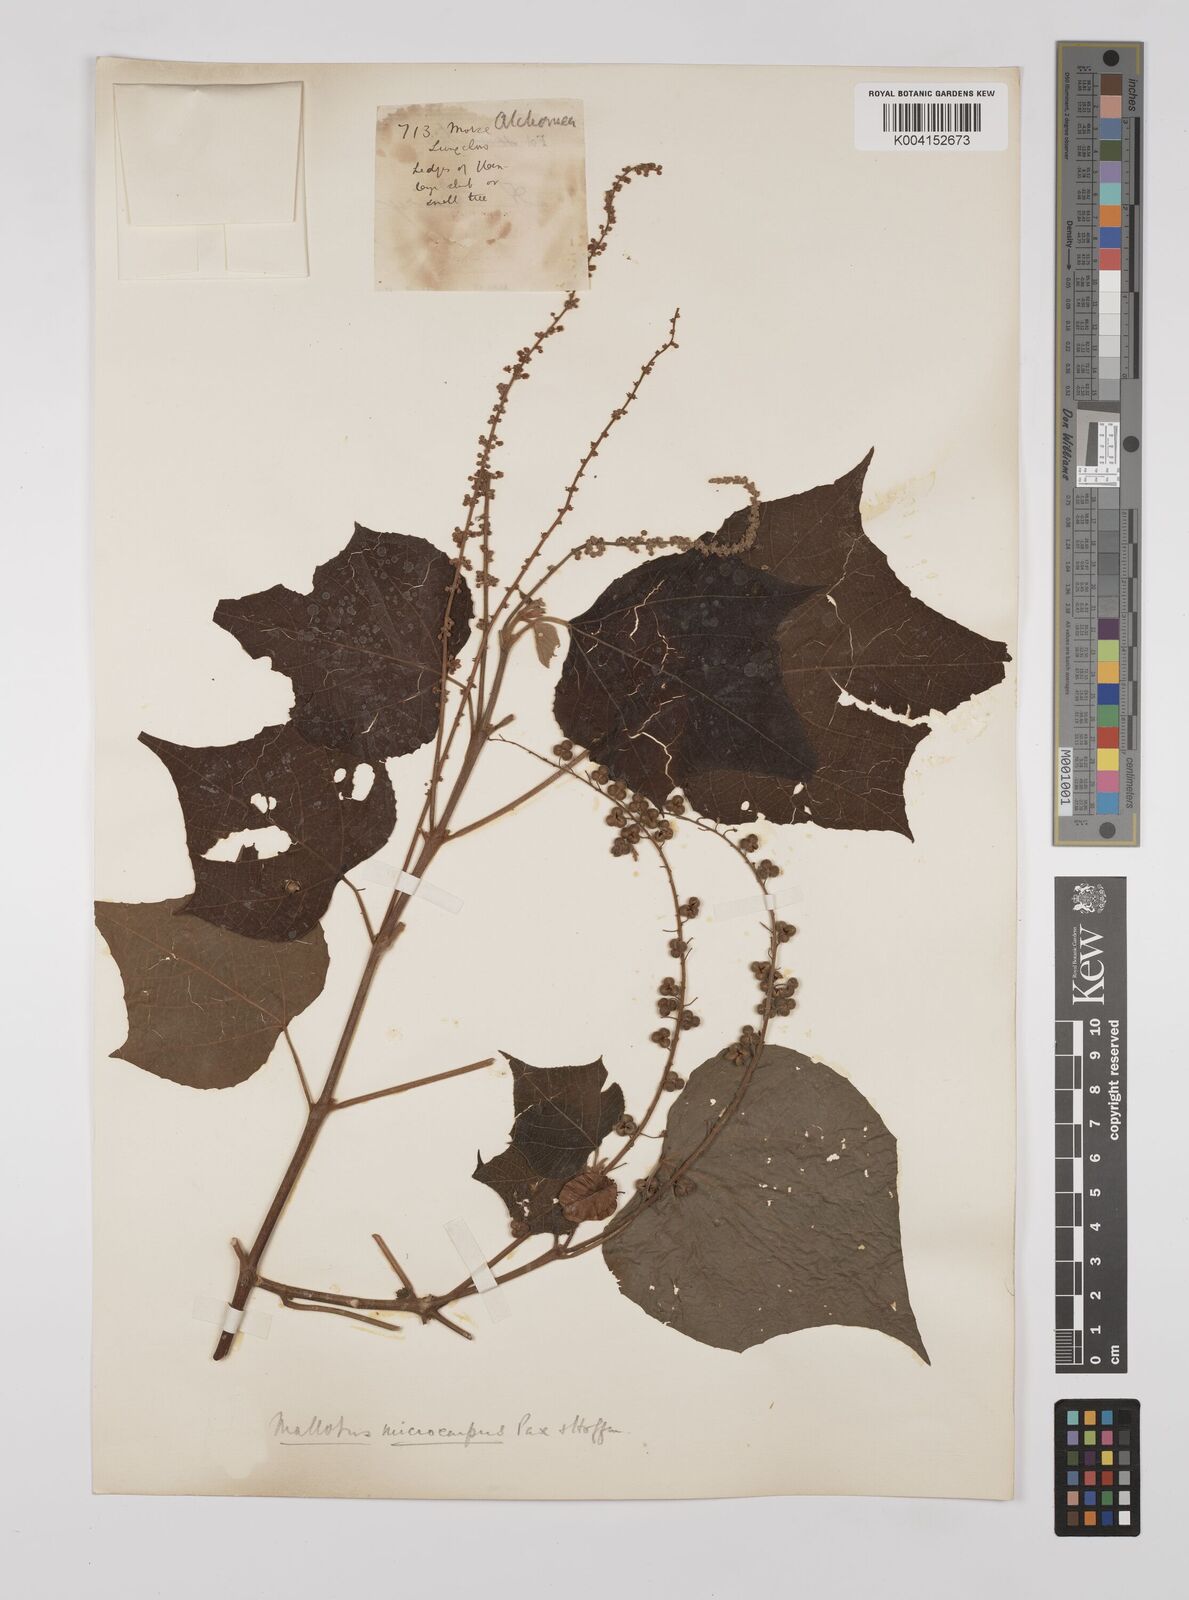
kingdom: Plantae
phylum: Tracheophyta
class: Magnoliopsida
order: Malpighiales
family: Euphorbiaceae
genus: Mallotus
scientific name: Mallotus microcarpus
